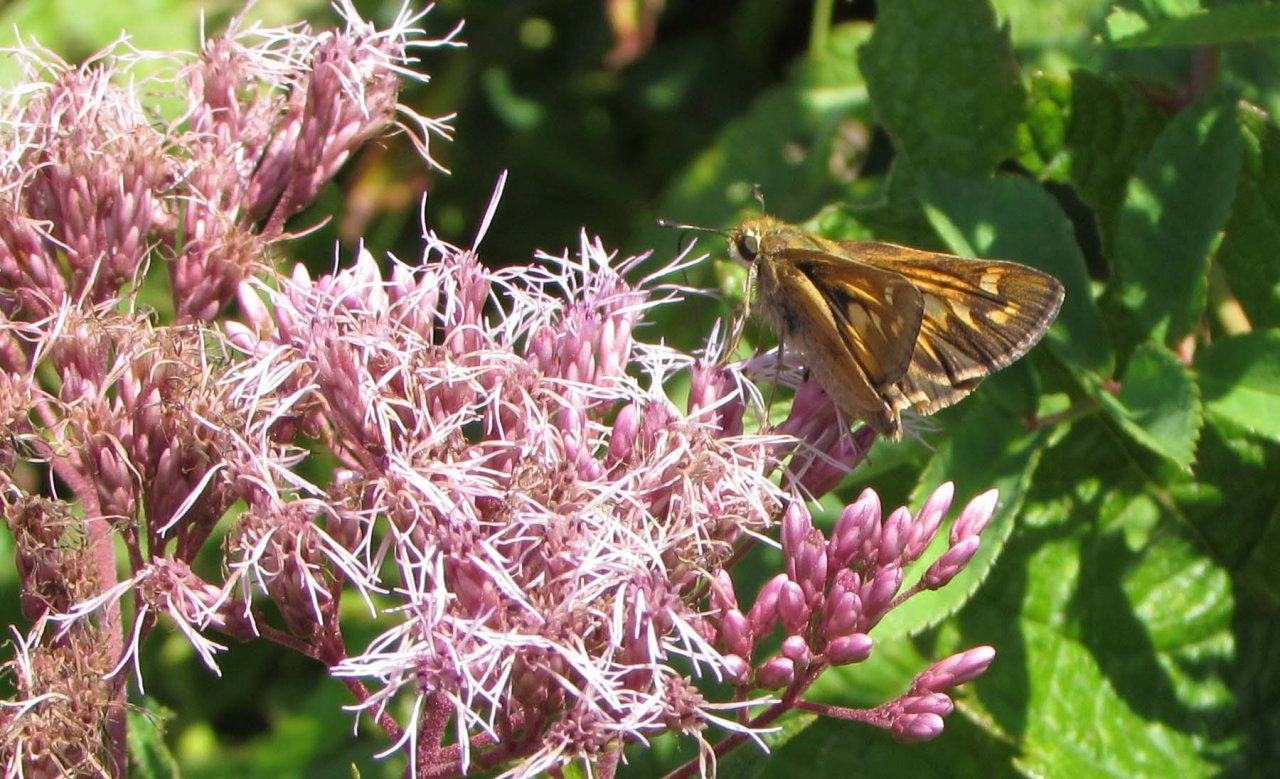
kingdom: Animalia
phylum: Arthropoda
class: Insecta
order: Lepidoptera
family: Hesperiidae
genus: Atalopedes
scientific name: Atalopedes campestris
